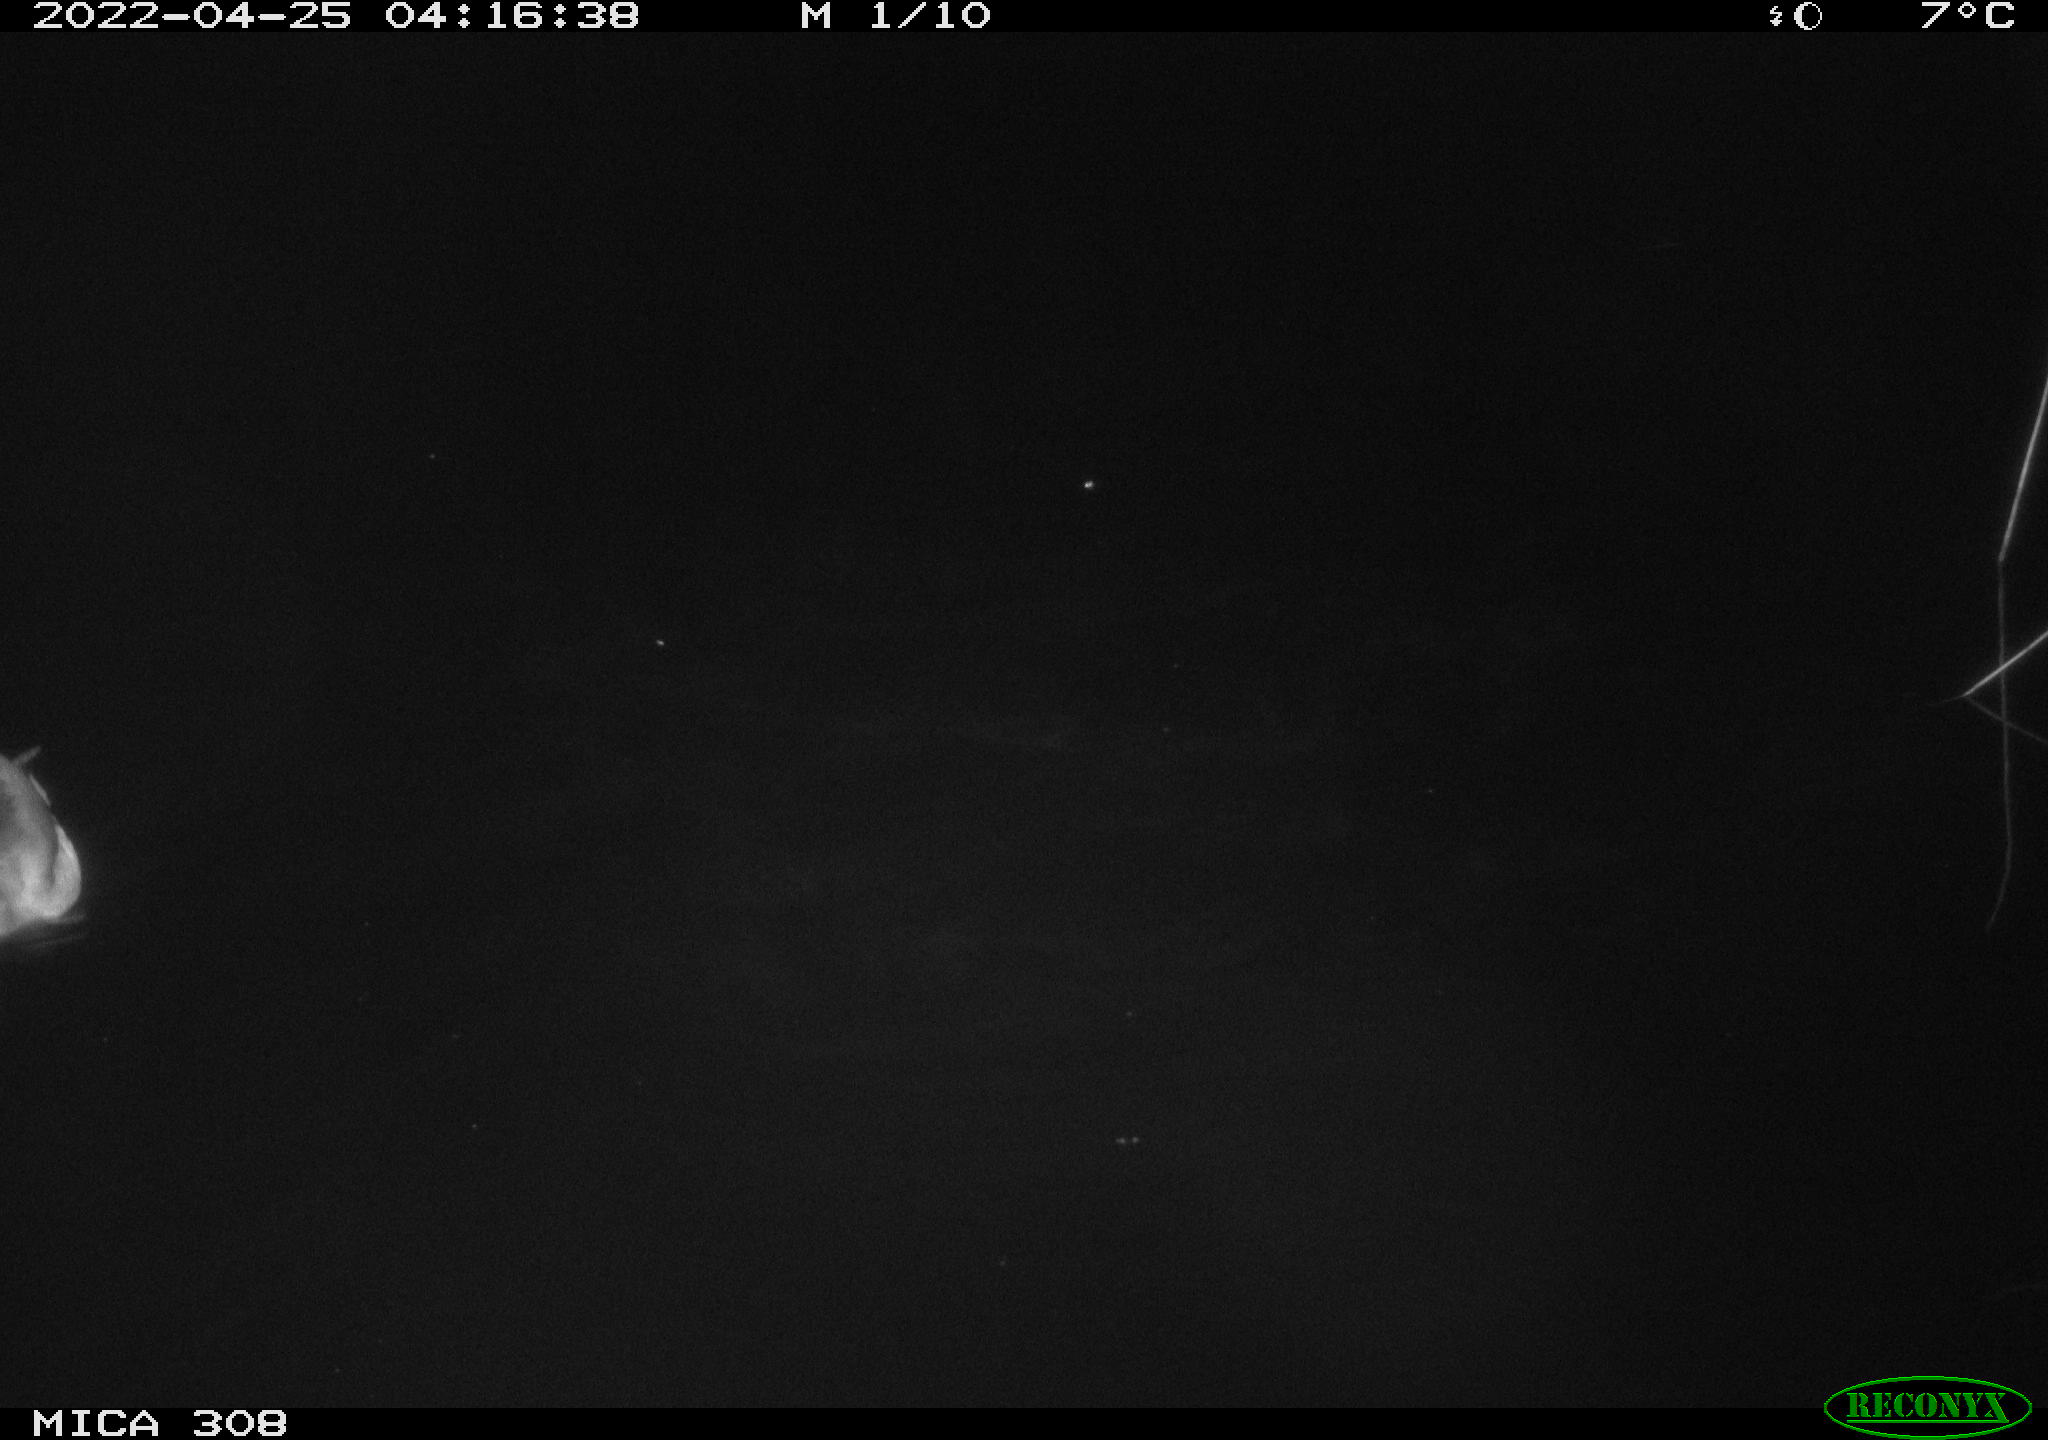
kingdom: Animalia
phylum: Chordata
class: Aves
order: Anseriformes
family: Anatidae
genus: Anas
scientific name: Anas platyrhynchos
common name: Mallard
